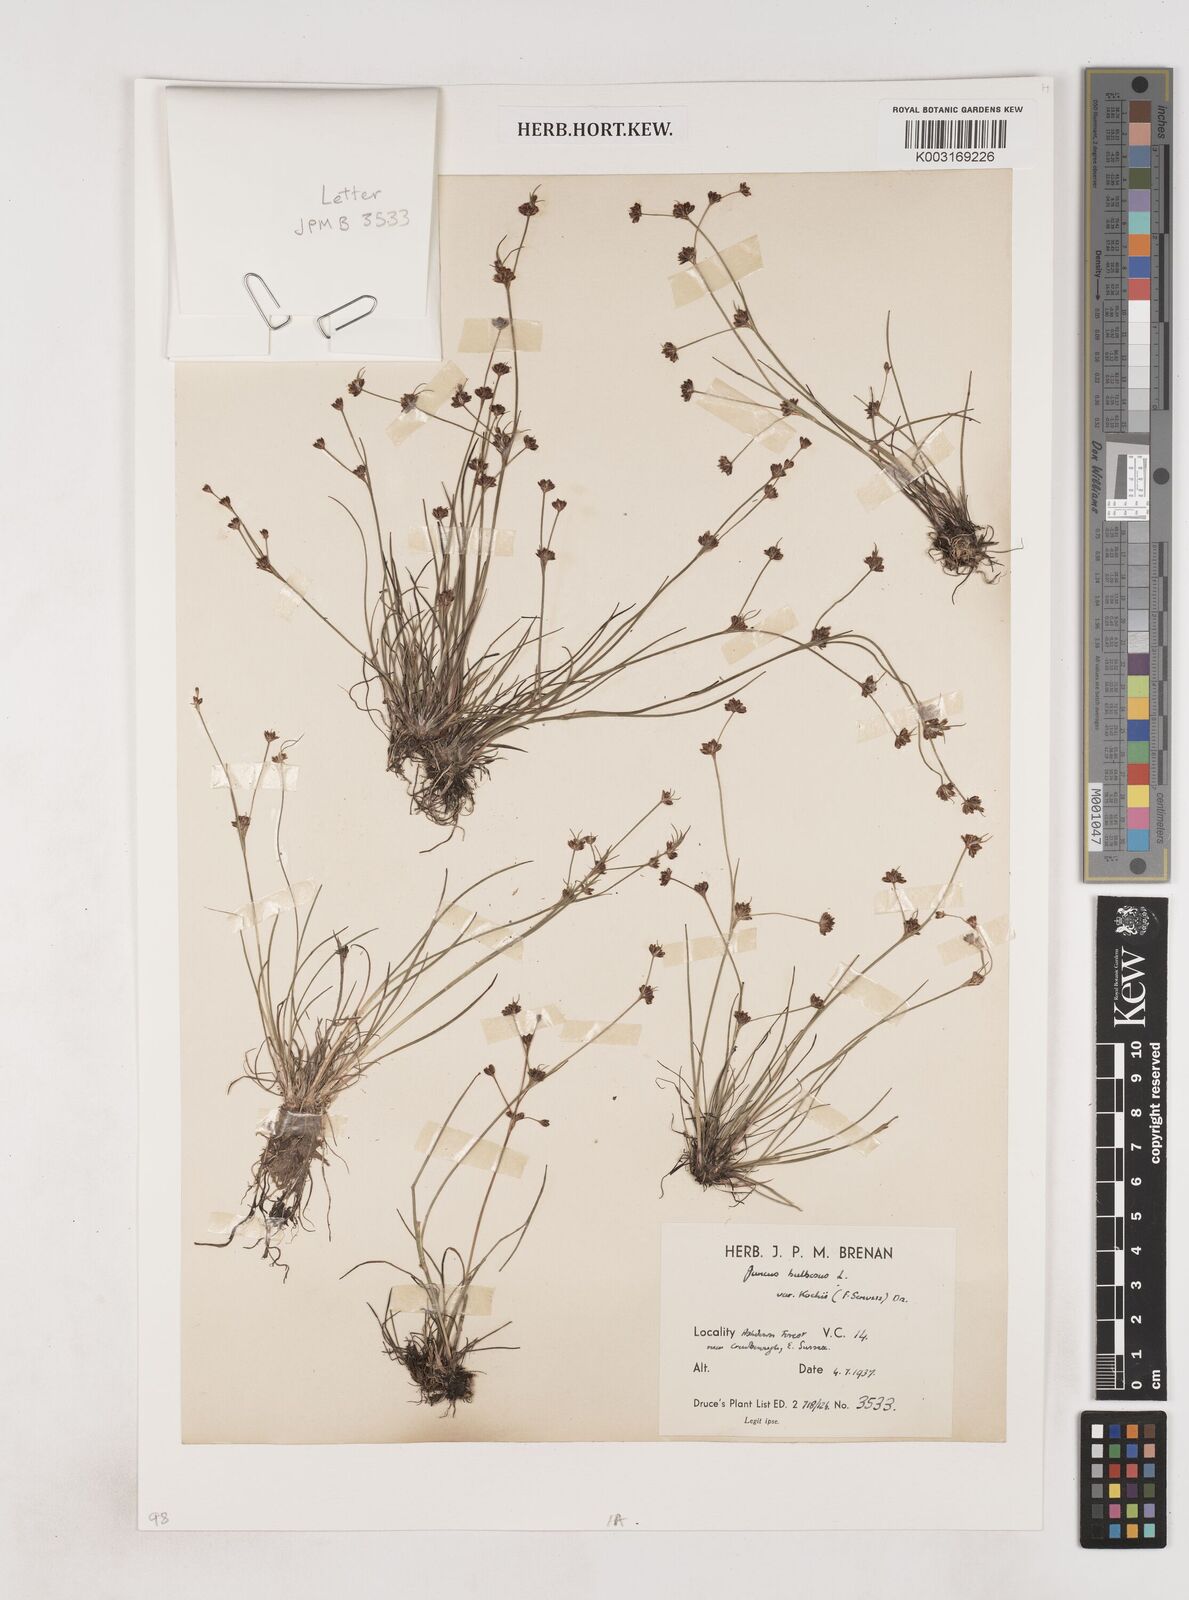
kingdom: Plantae
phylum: Tracheophyta
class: Liliopsida
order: Poales
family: Juncaceae
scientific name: Juncaceae
